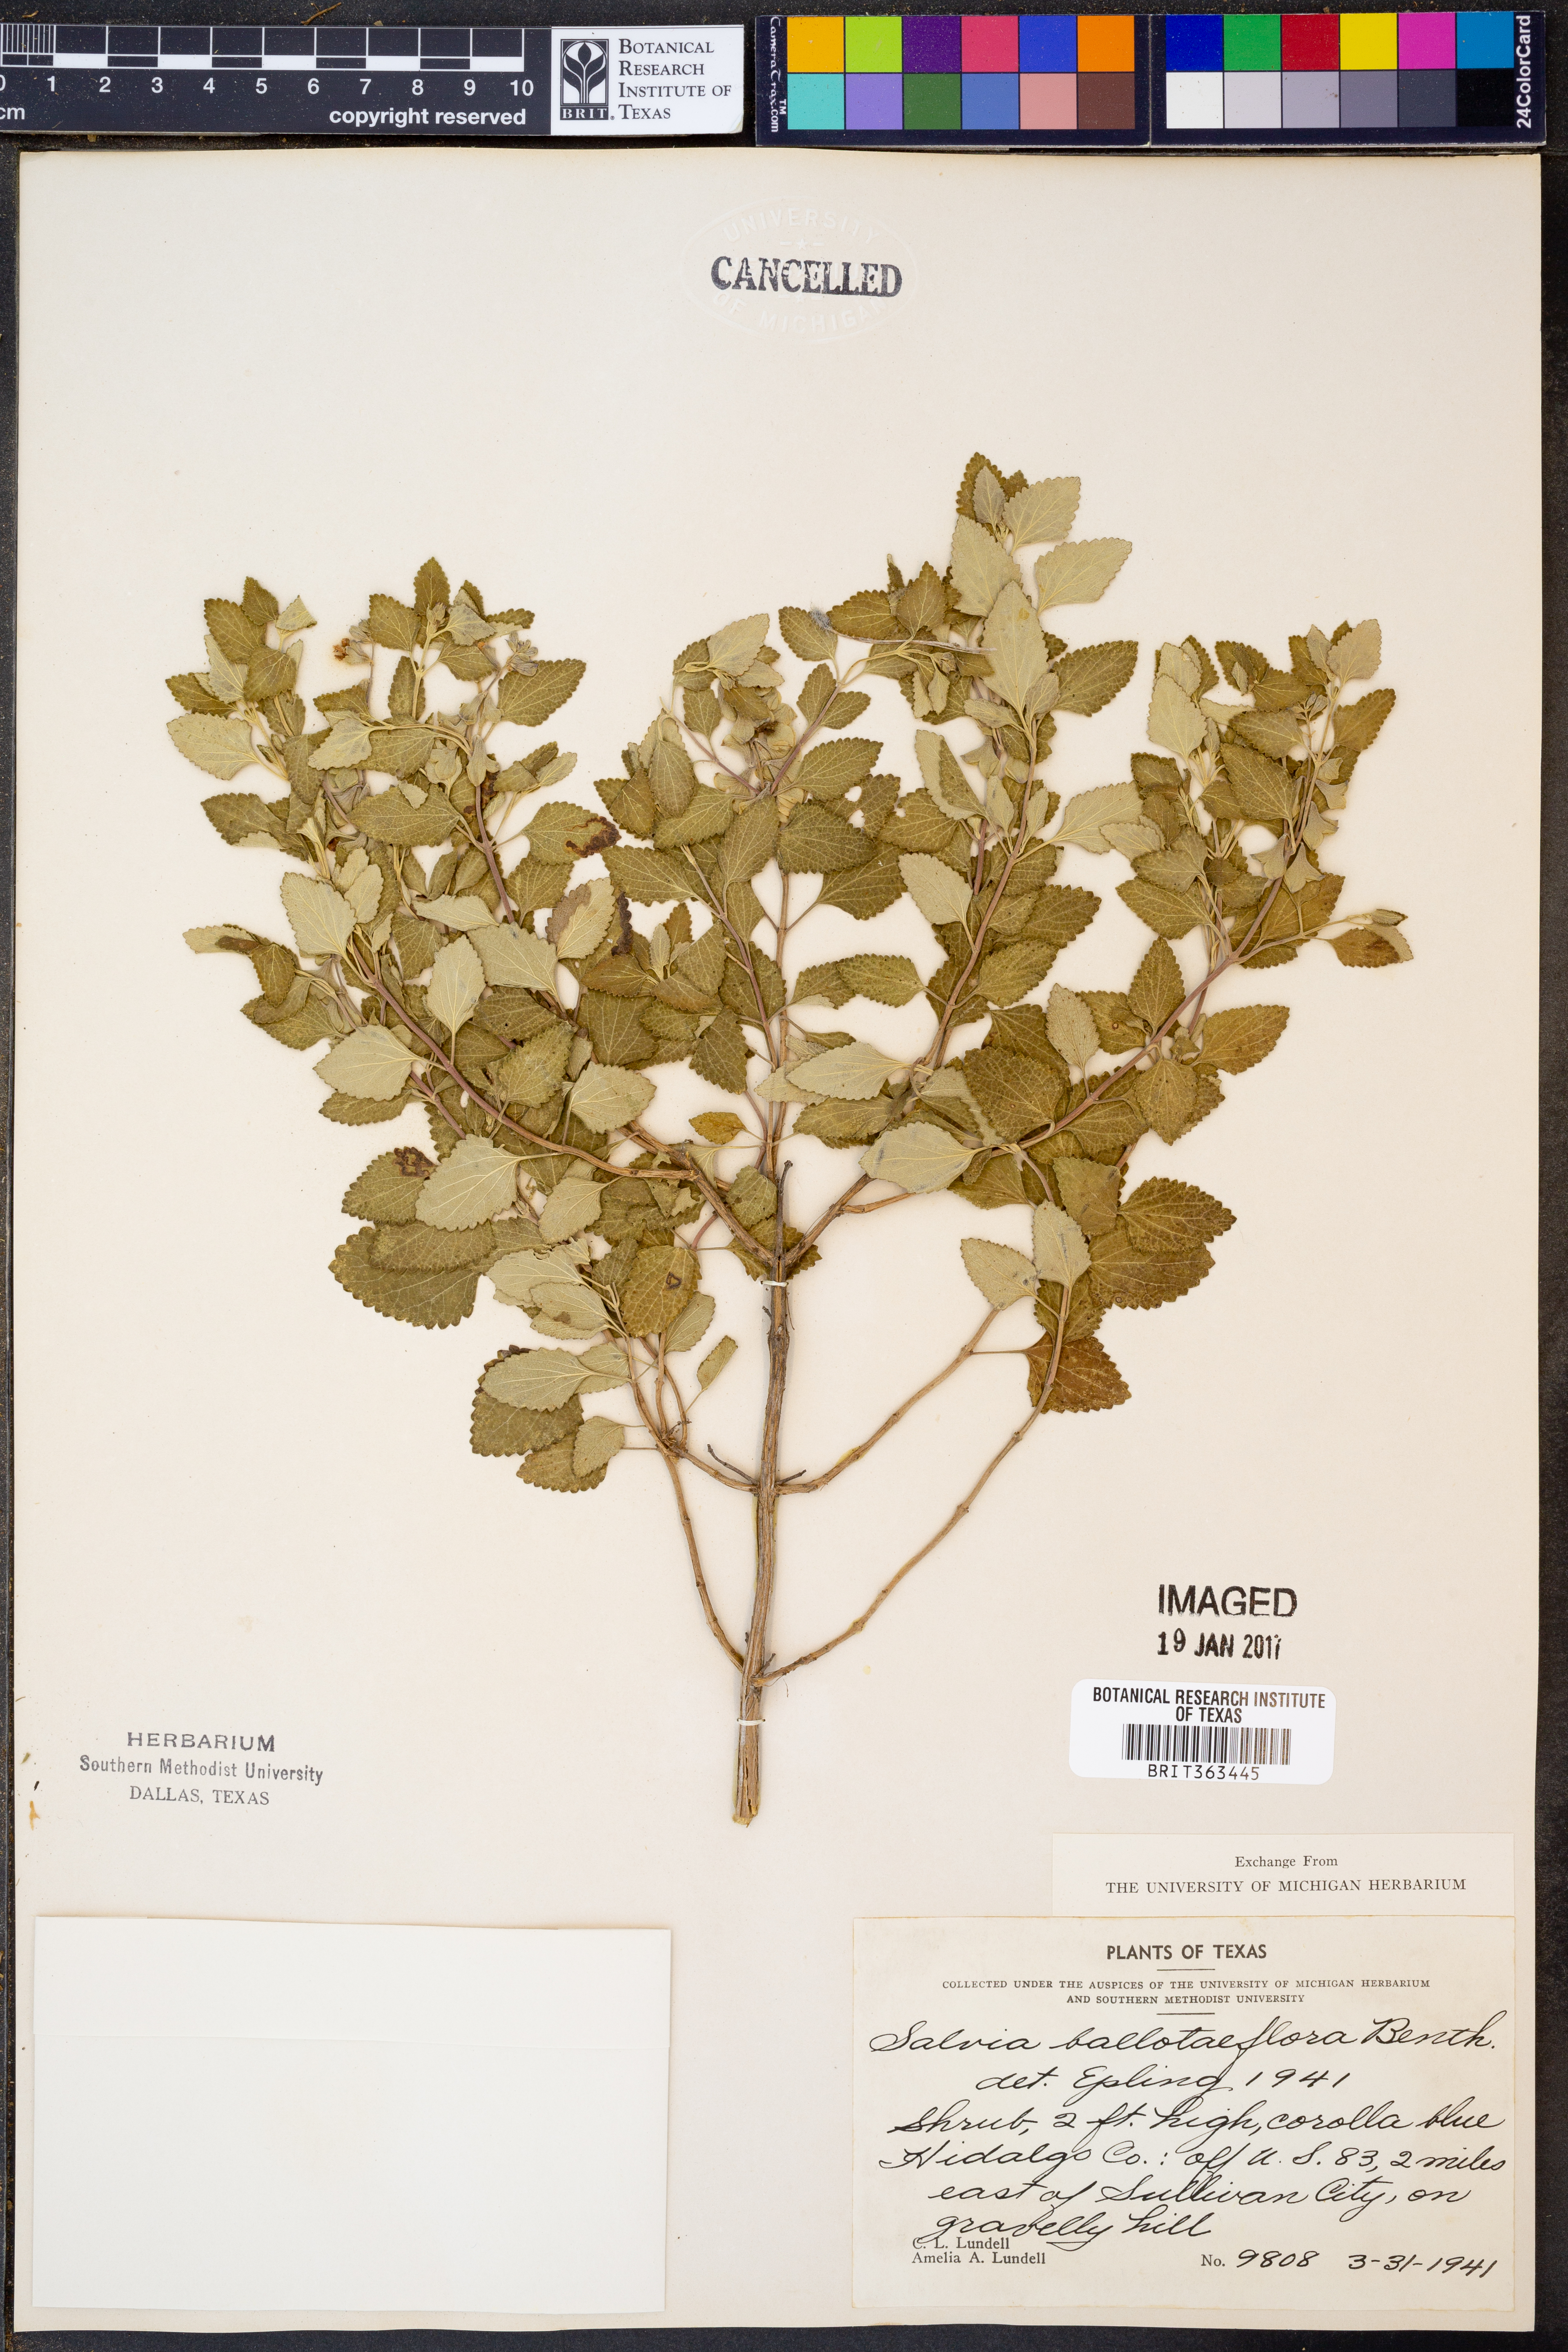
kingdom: Plantae
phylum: Tracheophyta
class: Magnoliopsida
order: Lamiales
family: Lamiaceae
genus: Salvia
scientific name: Salvia ballotiflora
